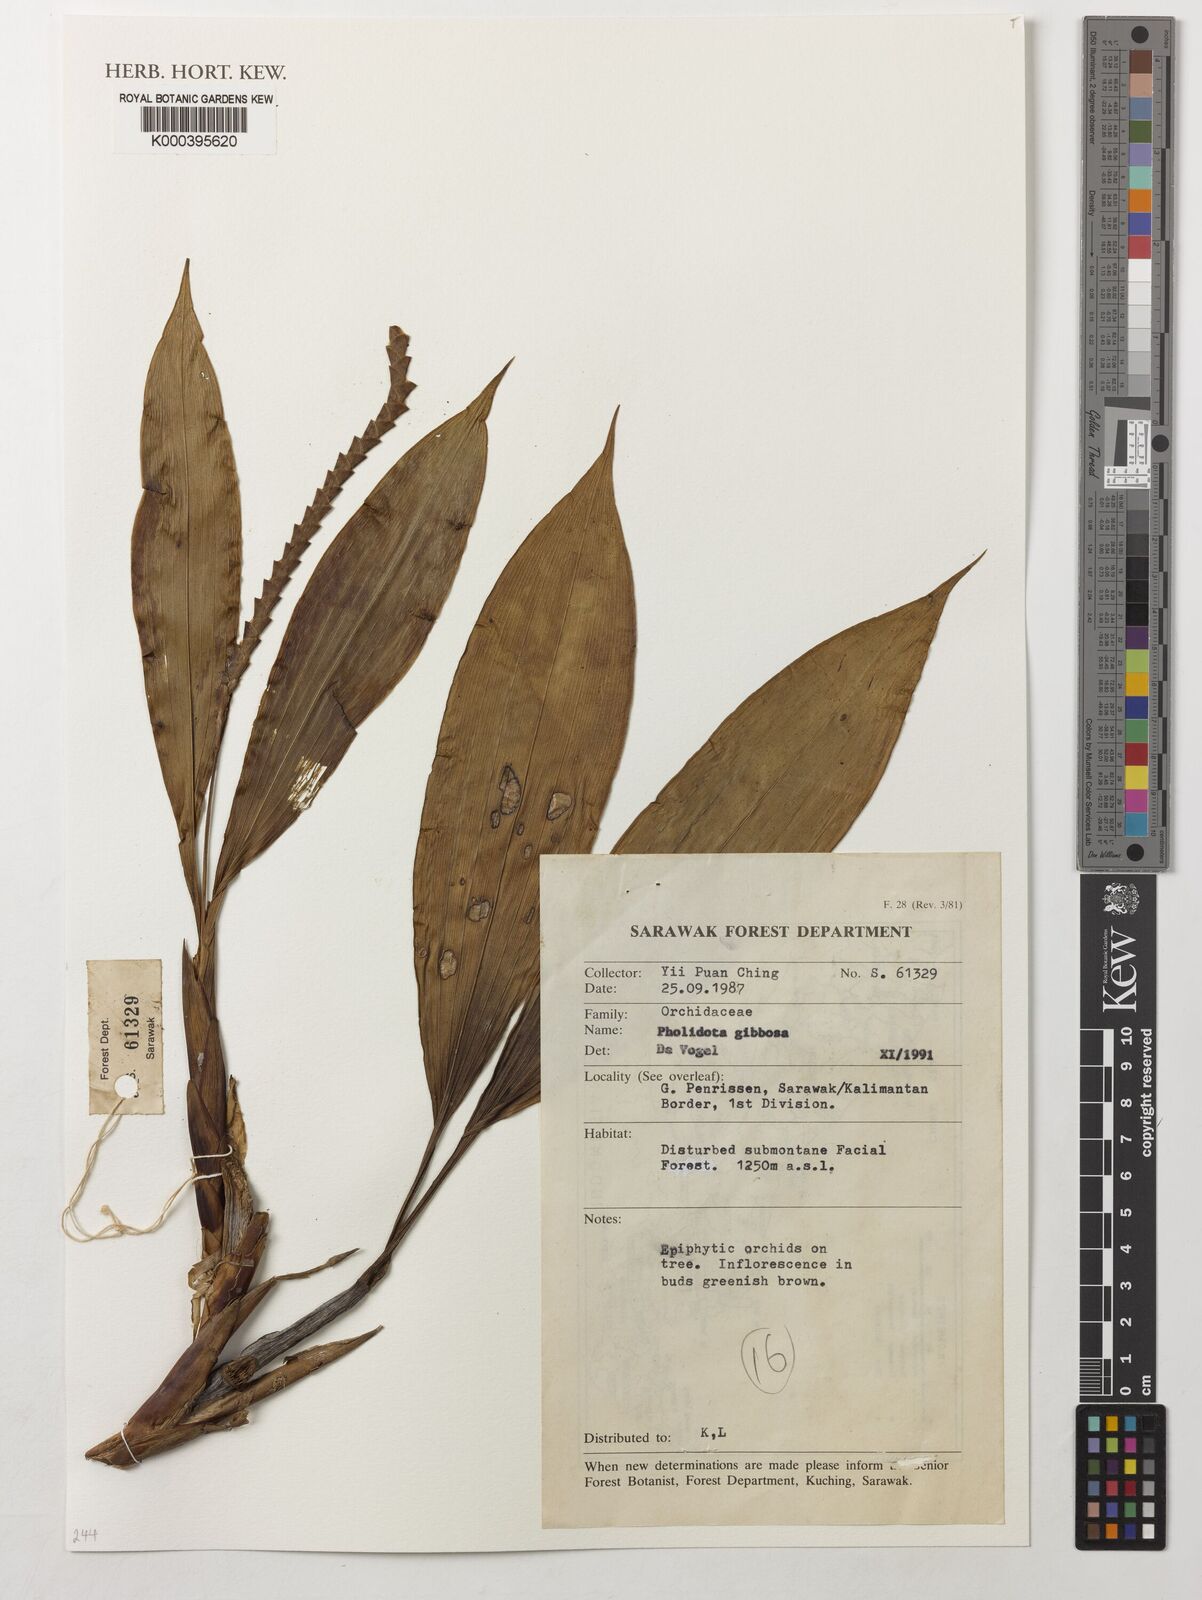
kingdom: Plantae
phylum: Tracheophyta
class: Liliopsida
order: Asparagales
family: Orchidaceae
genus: Coelogyne
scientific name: Coelogyne gibbosa
